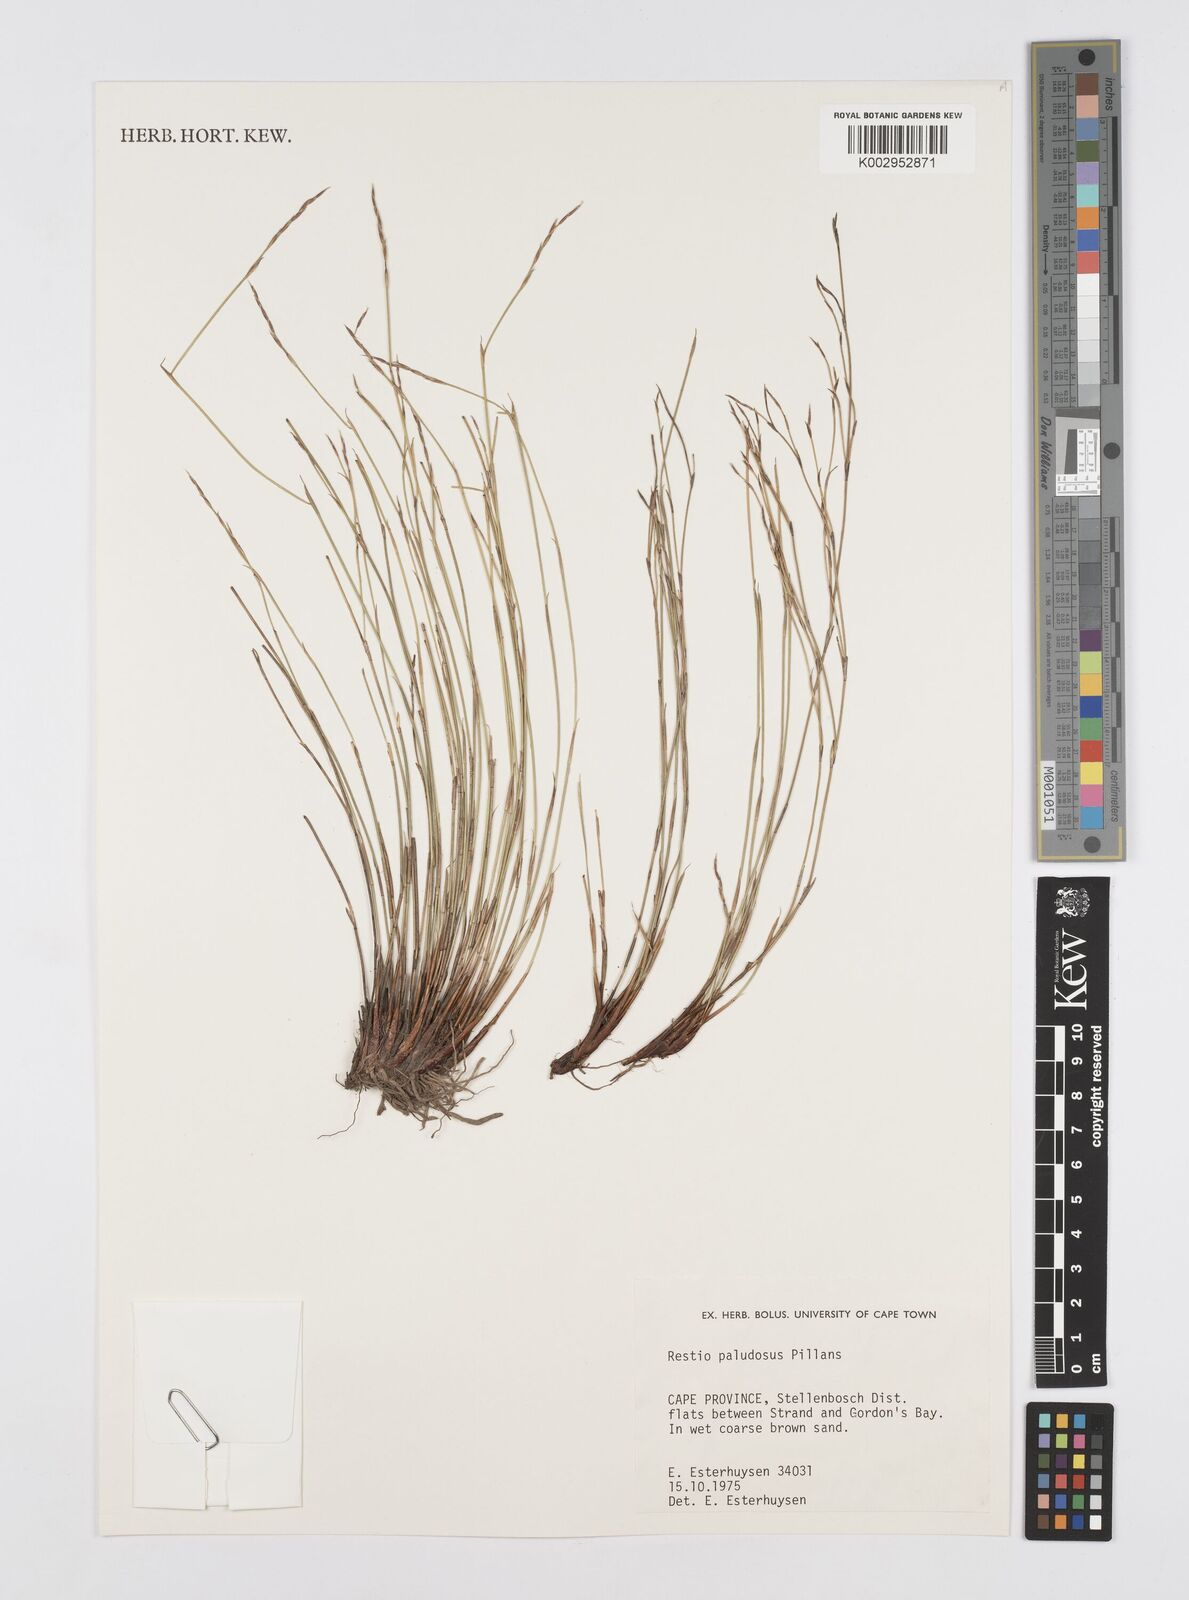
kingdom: Plantae
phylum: Tracheophyta
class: Liliopsida
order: Poales
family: Restionaceae
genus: Restio
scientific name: Restio paludosus
